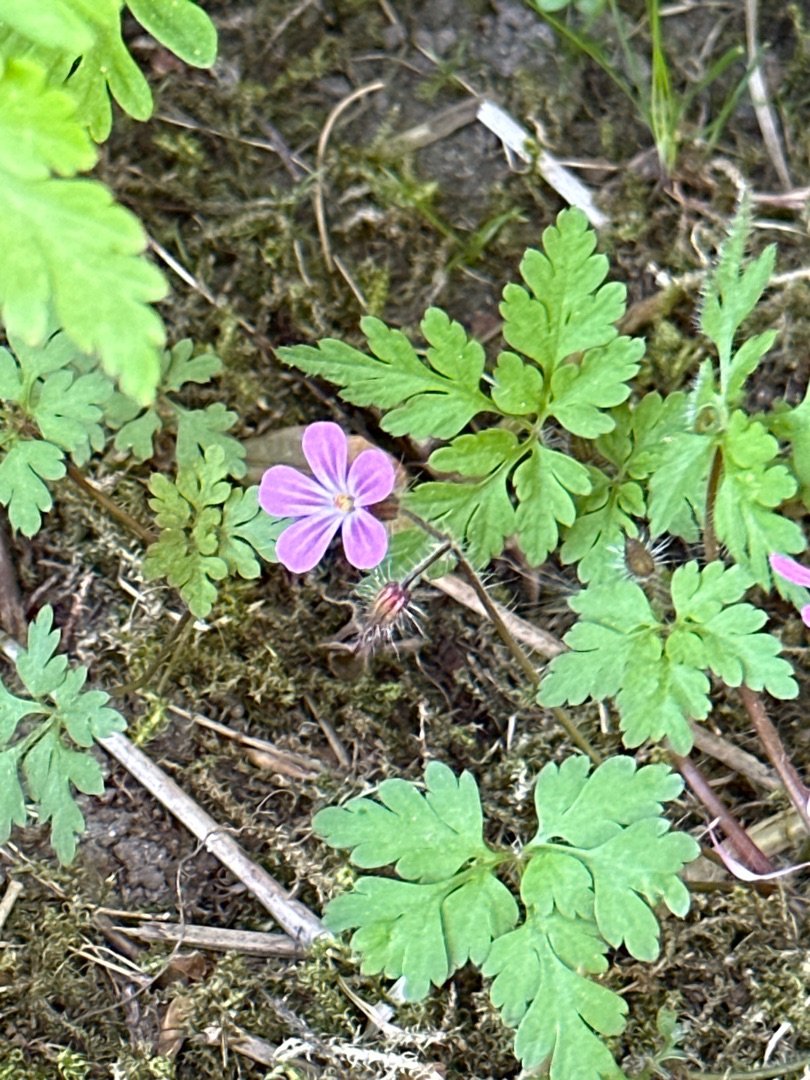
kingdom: Plantae
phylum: Tracheophyta
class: Magnoliopsida
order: Geraniales
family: Geraniaceae
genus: Geranium
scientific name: Geranium robertianum
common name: Stinkende storkenæb
